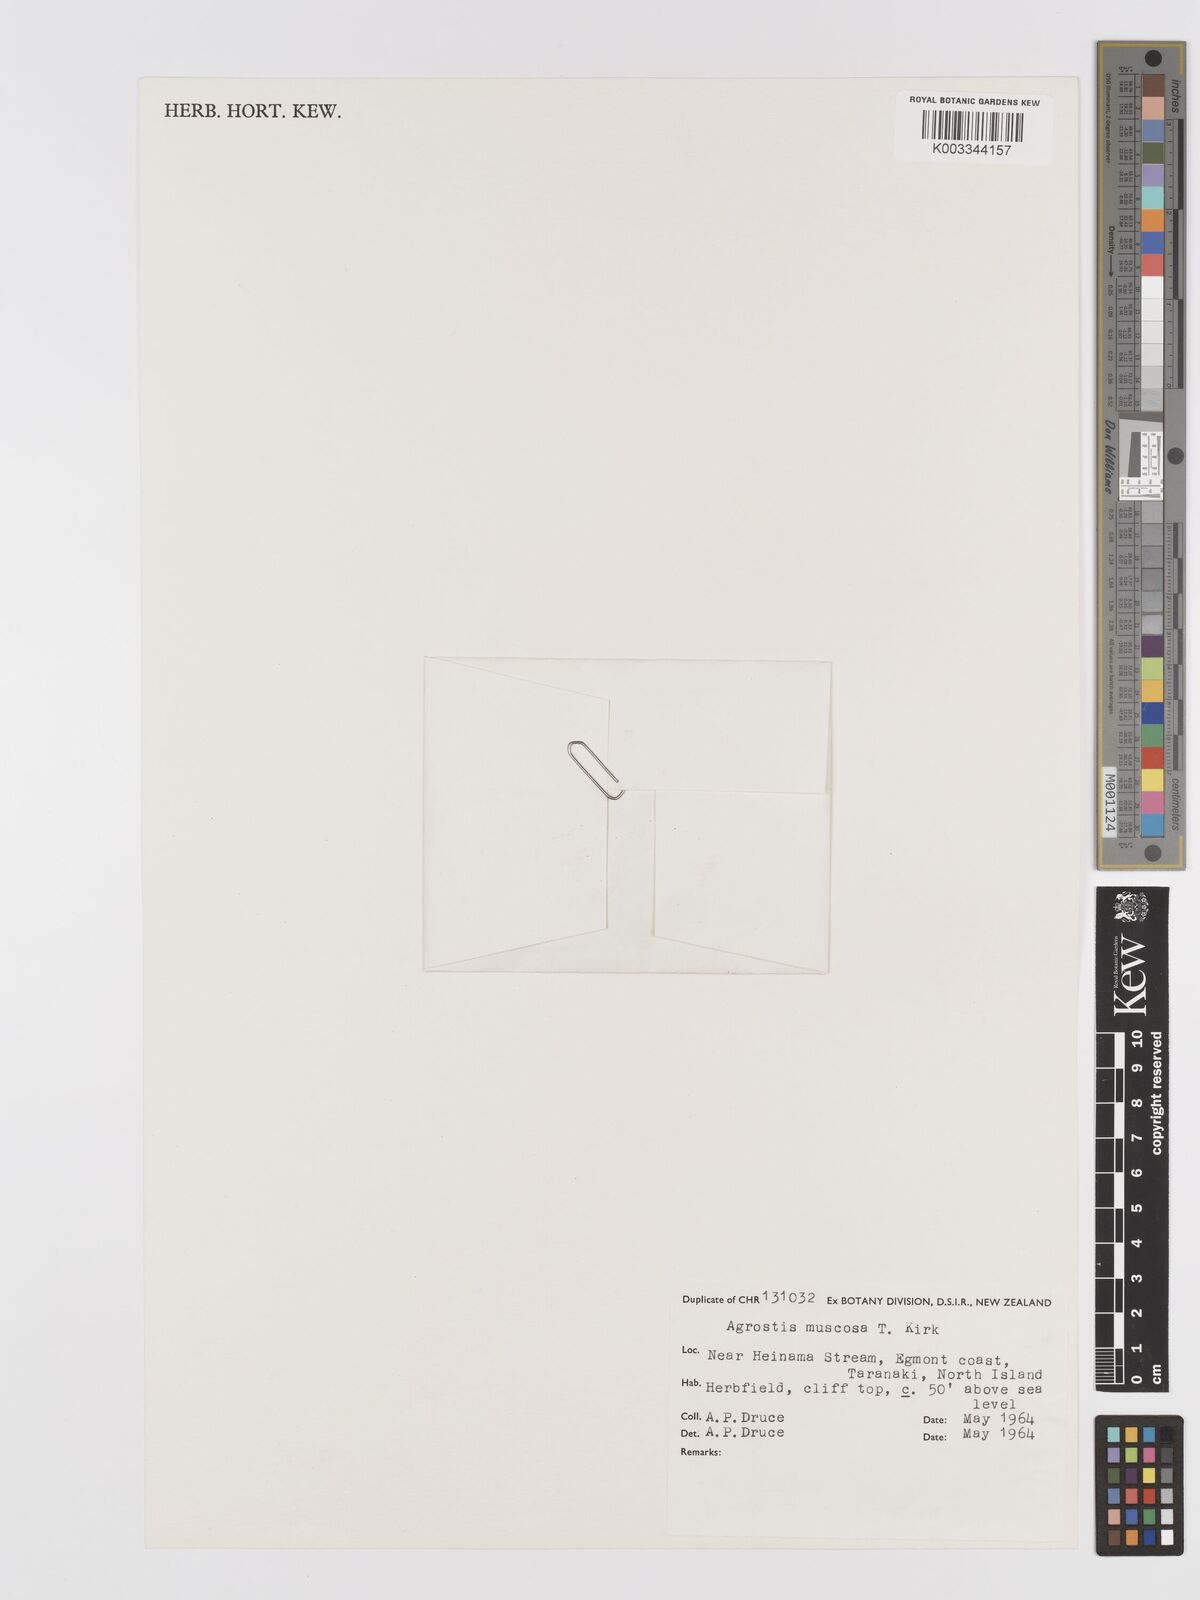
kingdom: Plantae
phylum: Tracheophyta
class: Liliopsida
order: Poales
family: Poaceae
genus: Agrostis
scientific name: Agrostis muscosa
